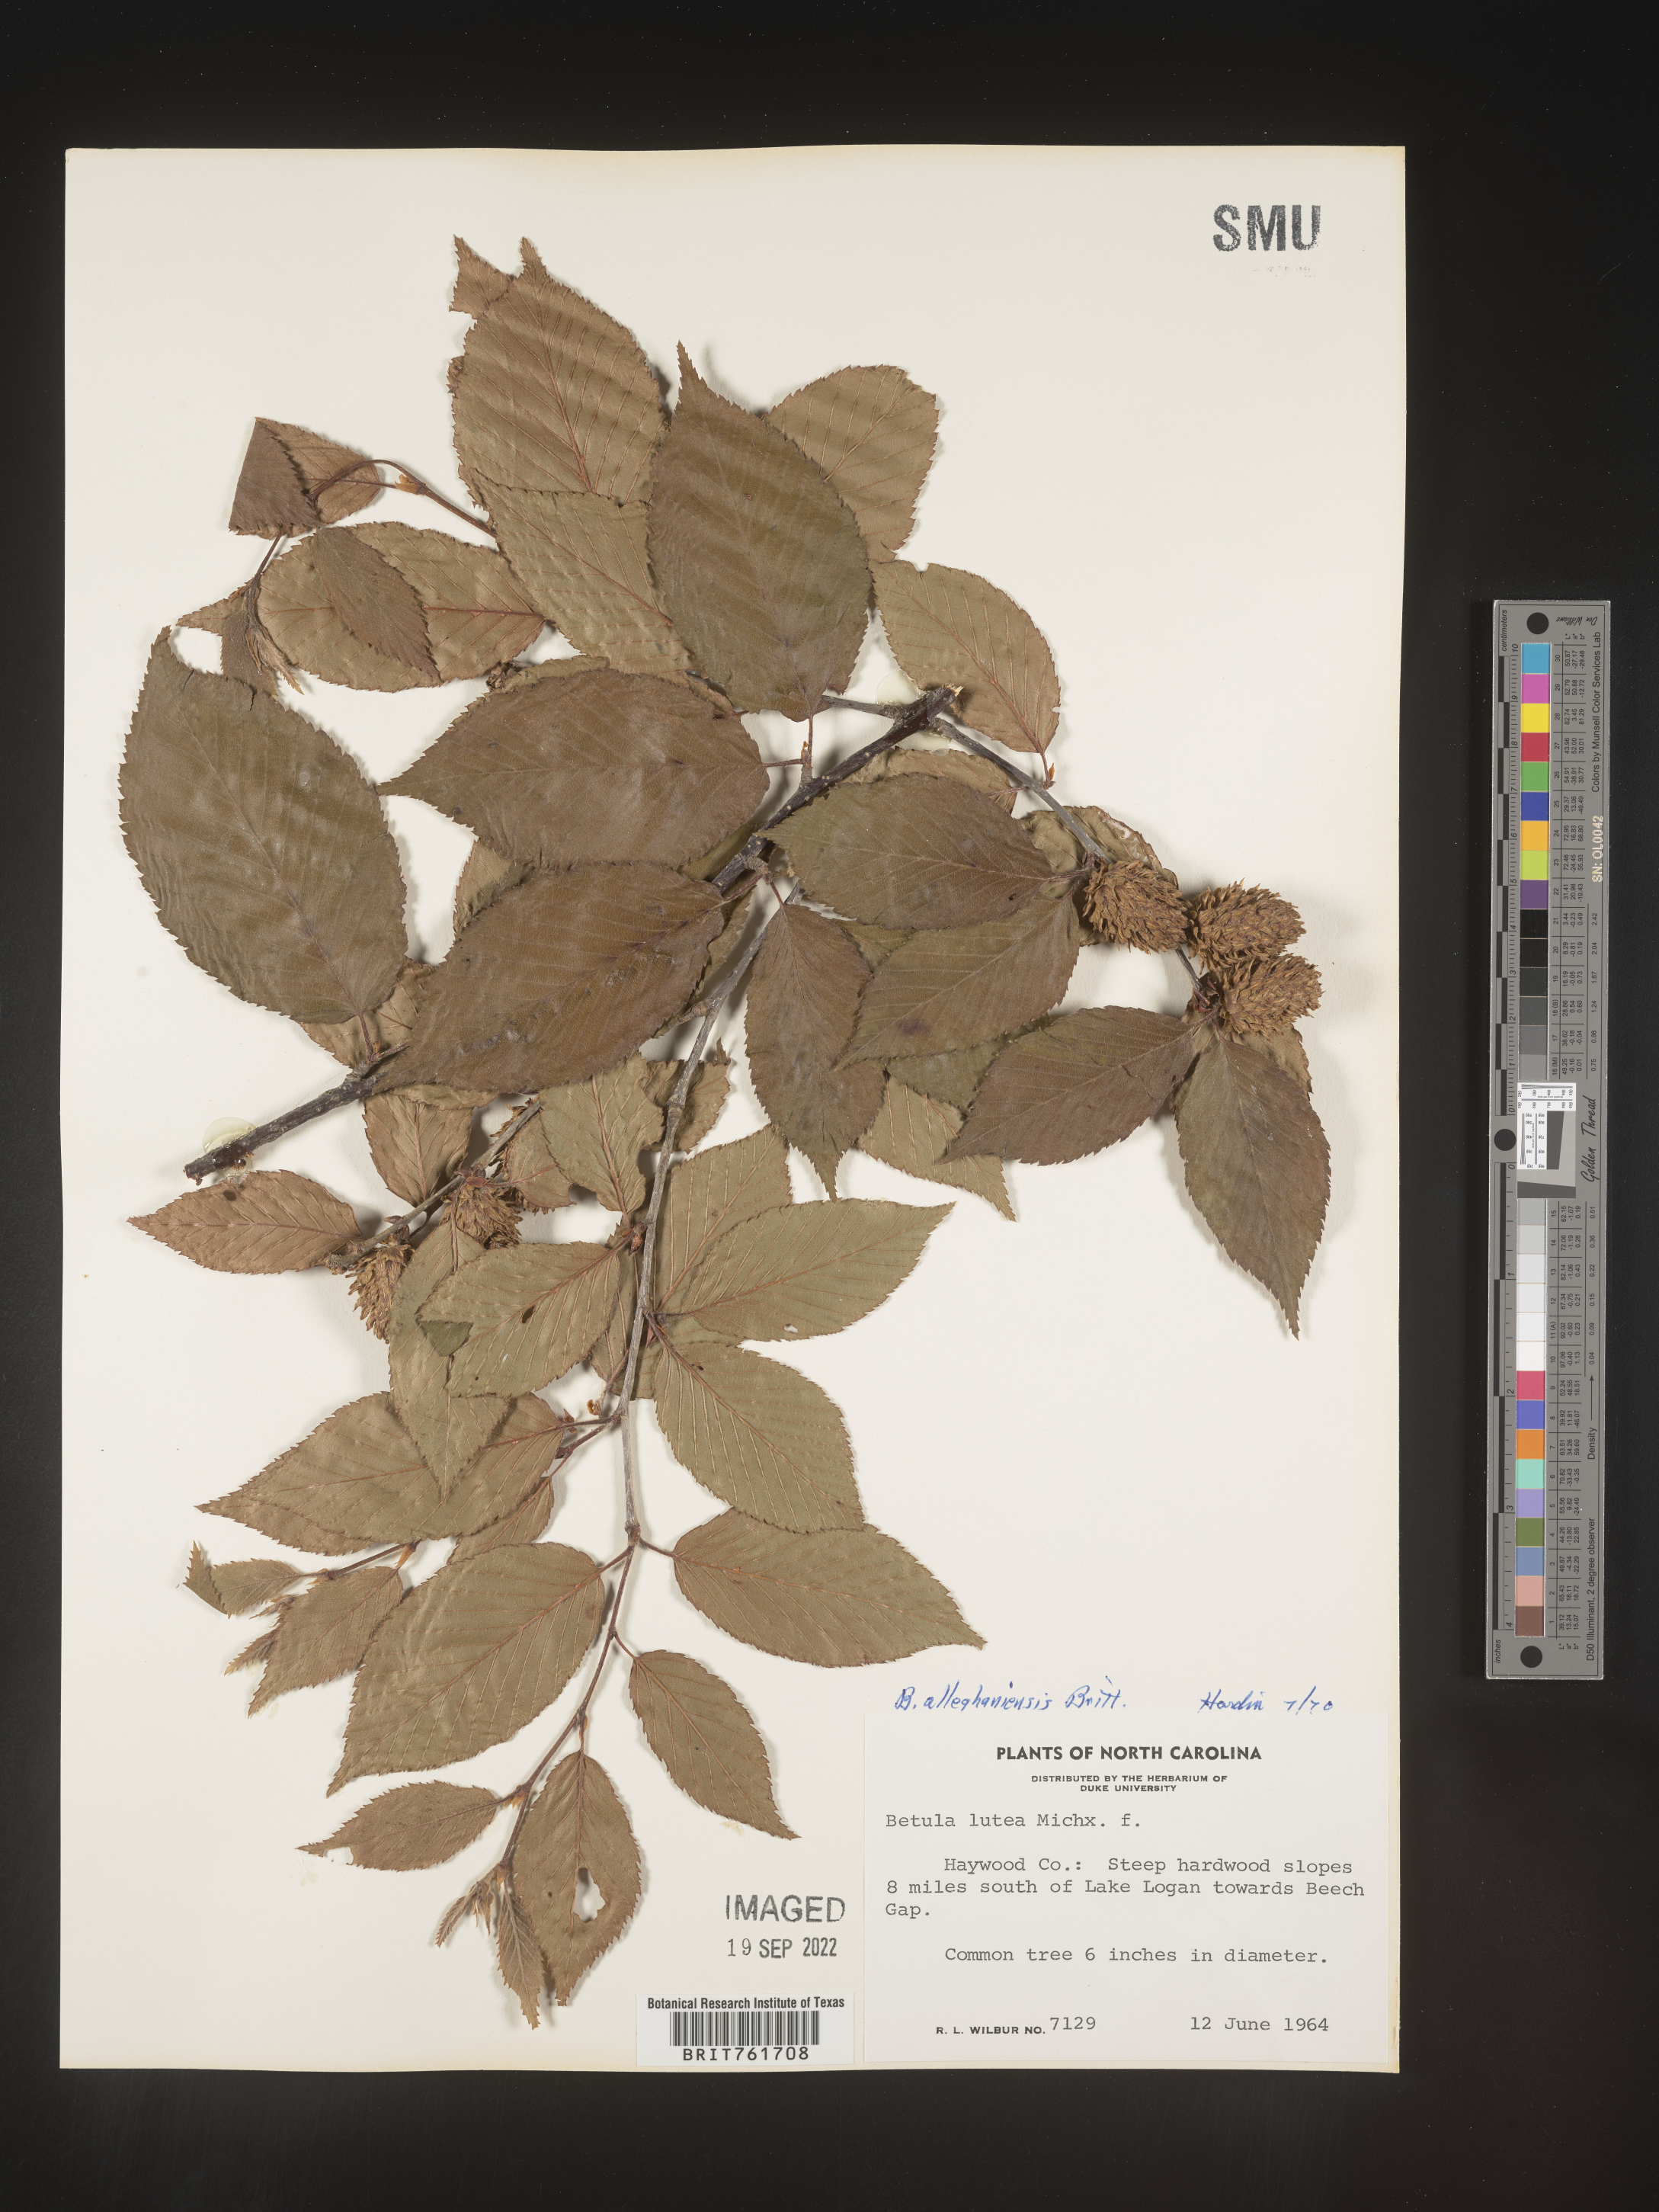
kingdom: Plantae
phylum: Tracheophyta
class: Magnoliopsida
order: Fagales
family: Betulaceae
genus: Betula
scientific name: Betula alleghaniensis
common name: Yellow birch
